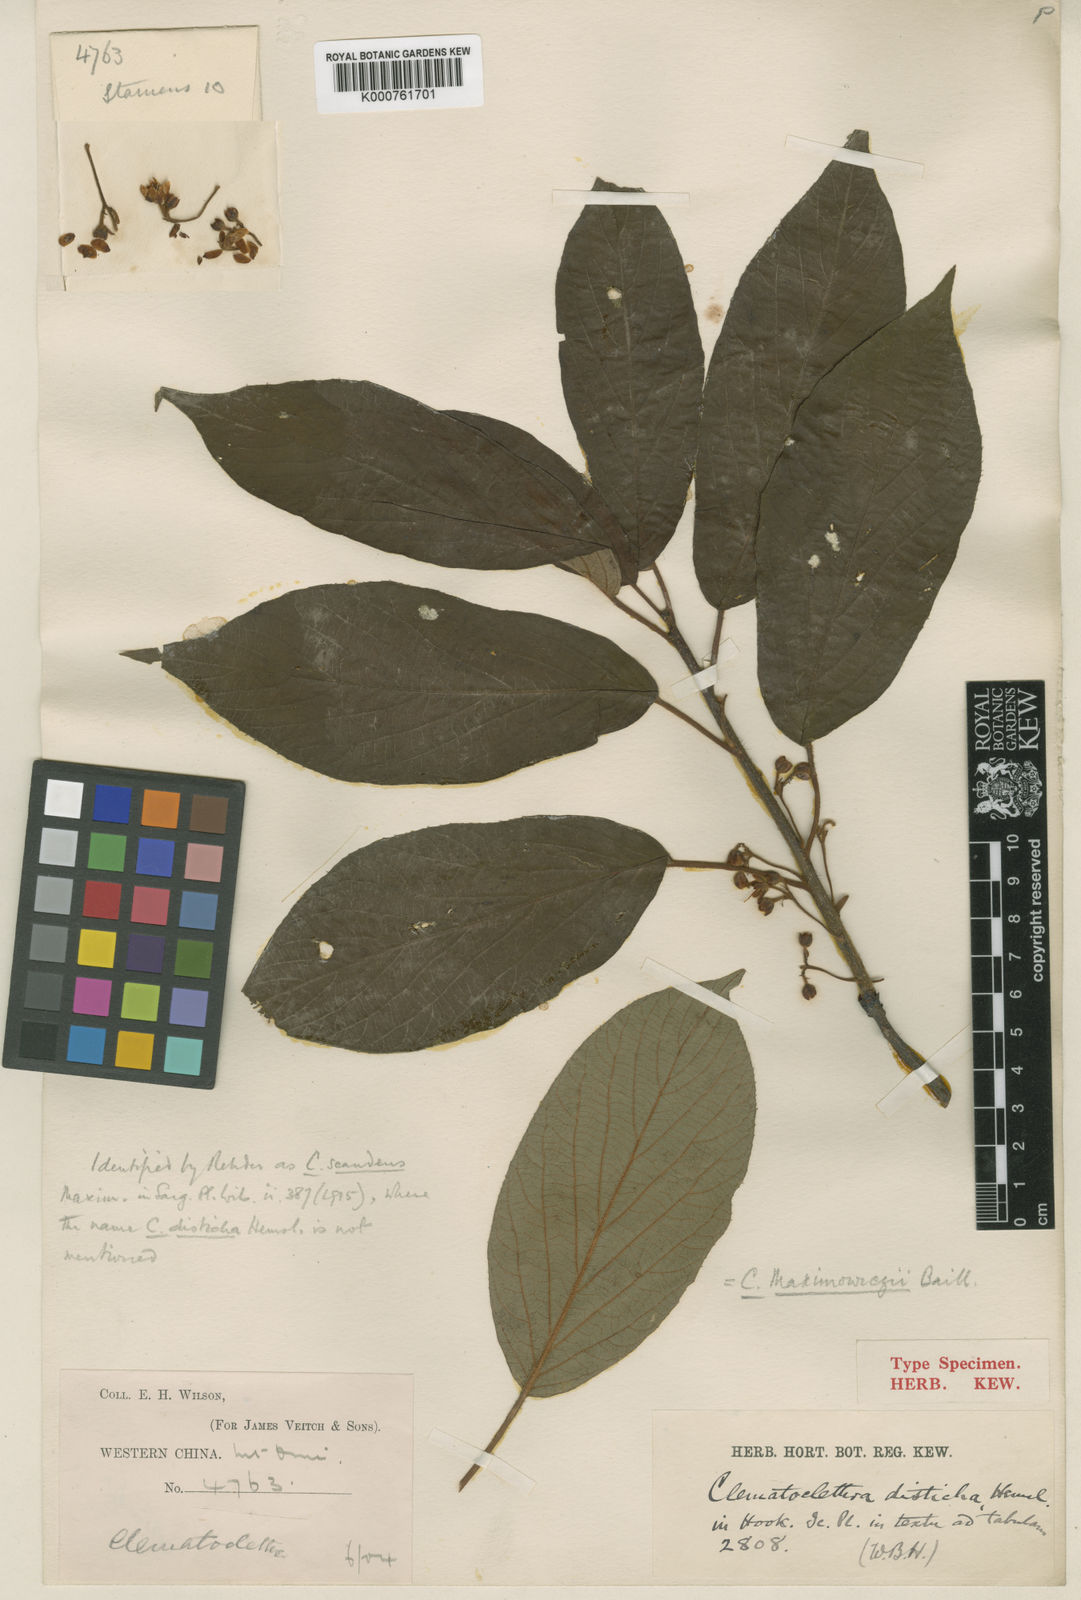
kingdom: Plantae
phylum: Tracheophyta
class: Magnoliopsida
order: Ericales
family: Actinidiaceae
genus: Clematoclethra
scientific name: Clematoclethra scandens
